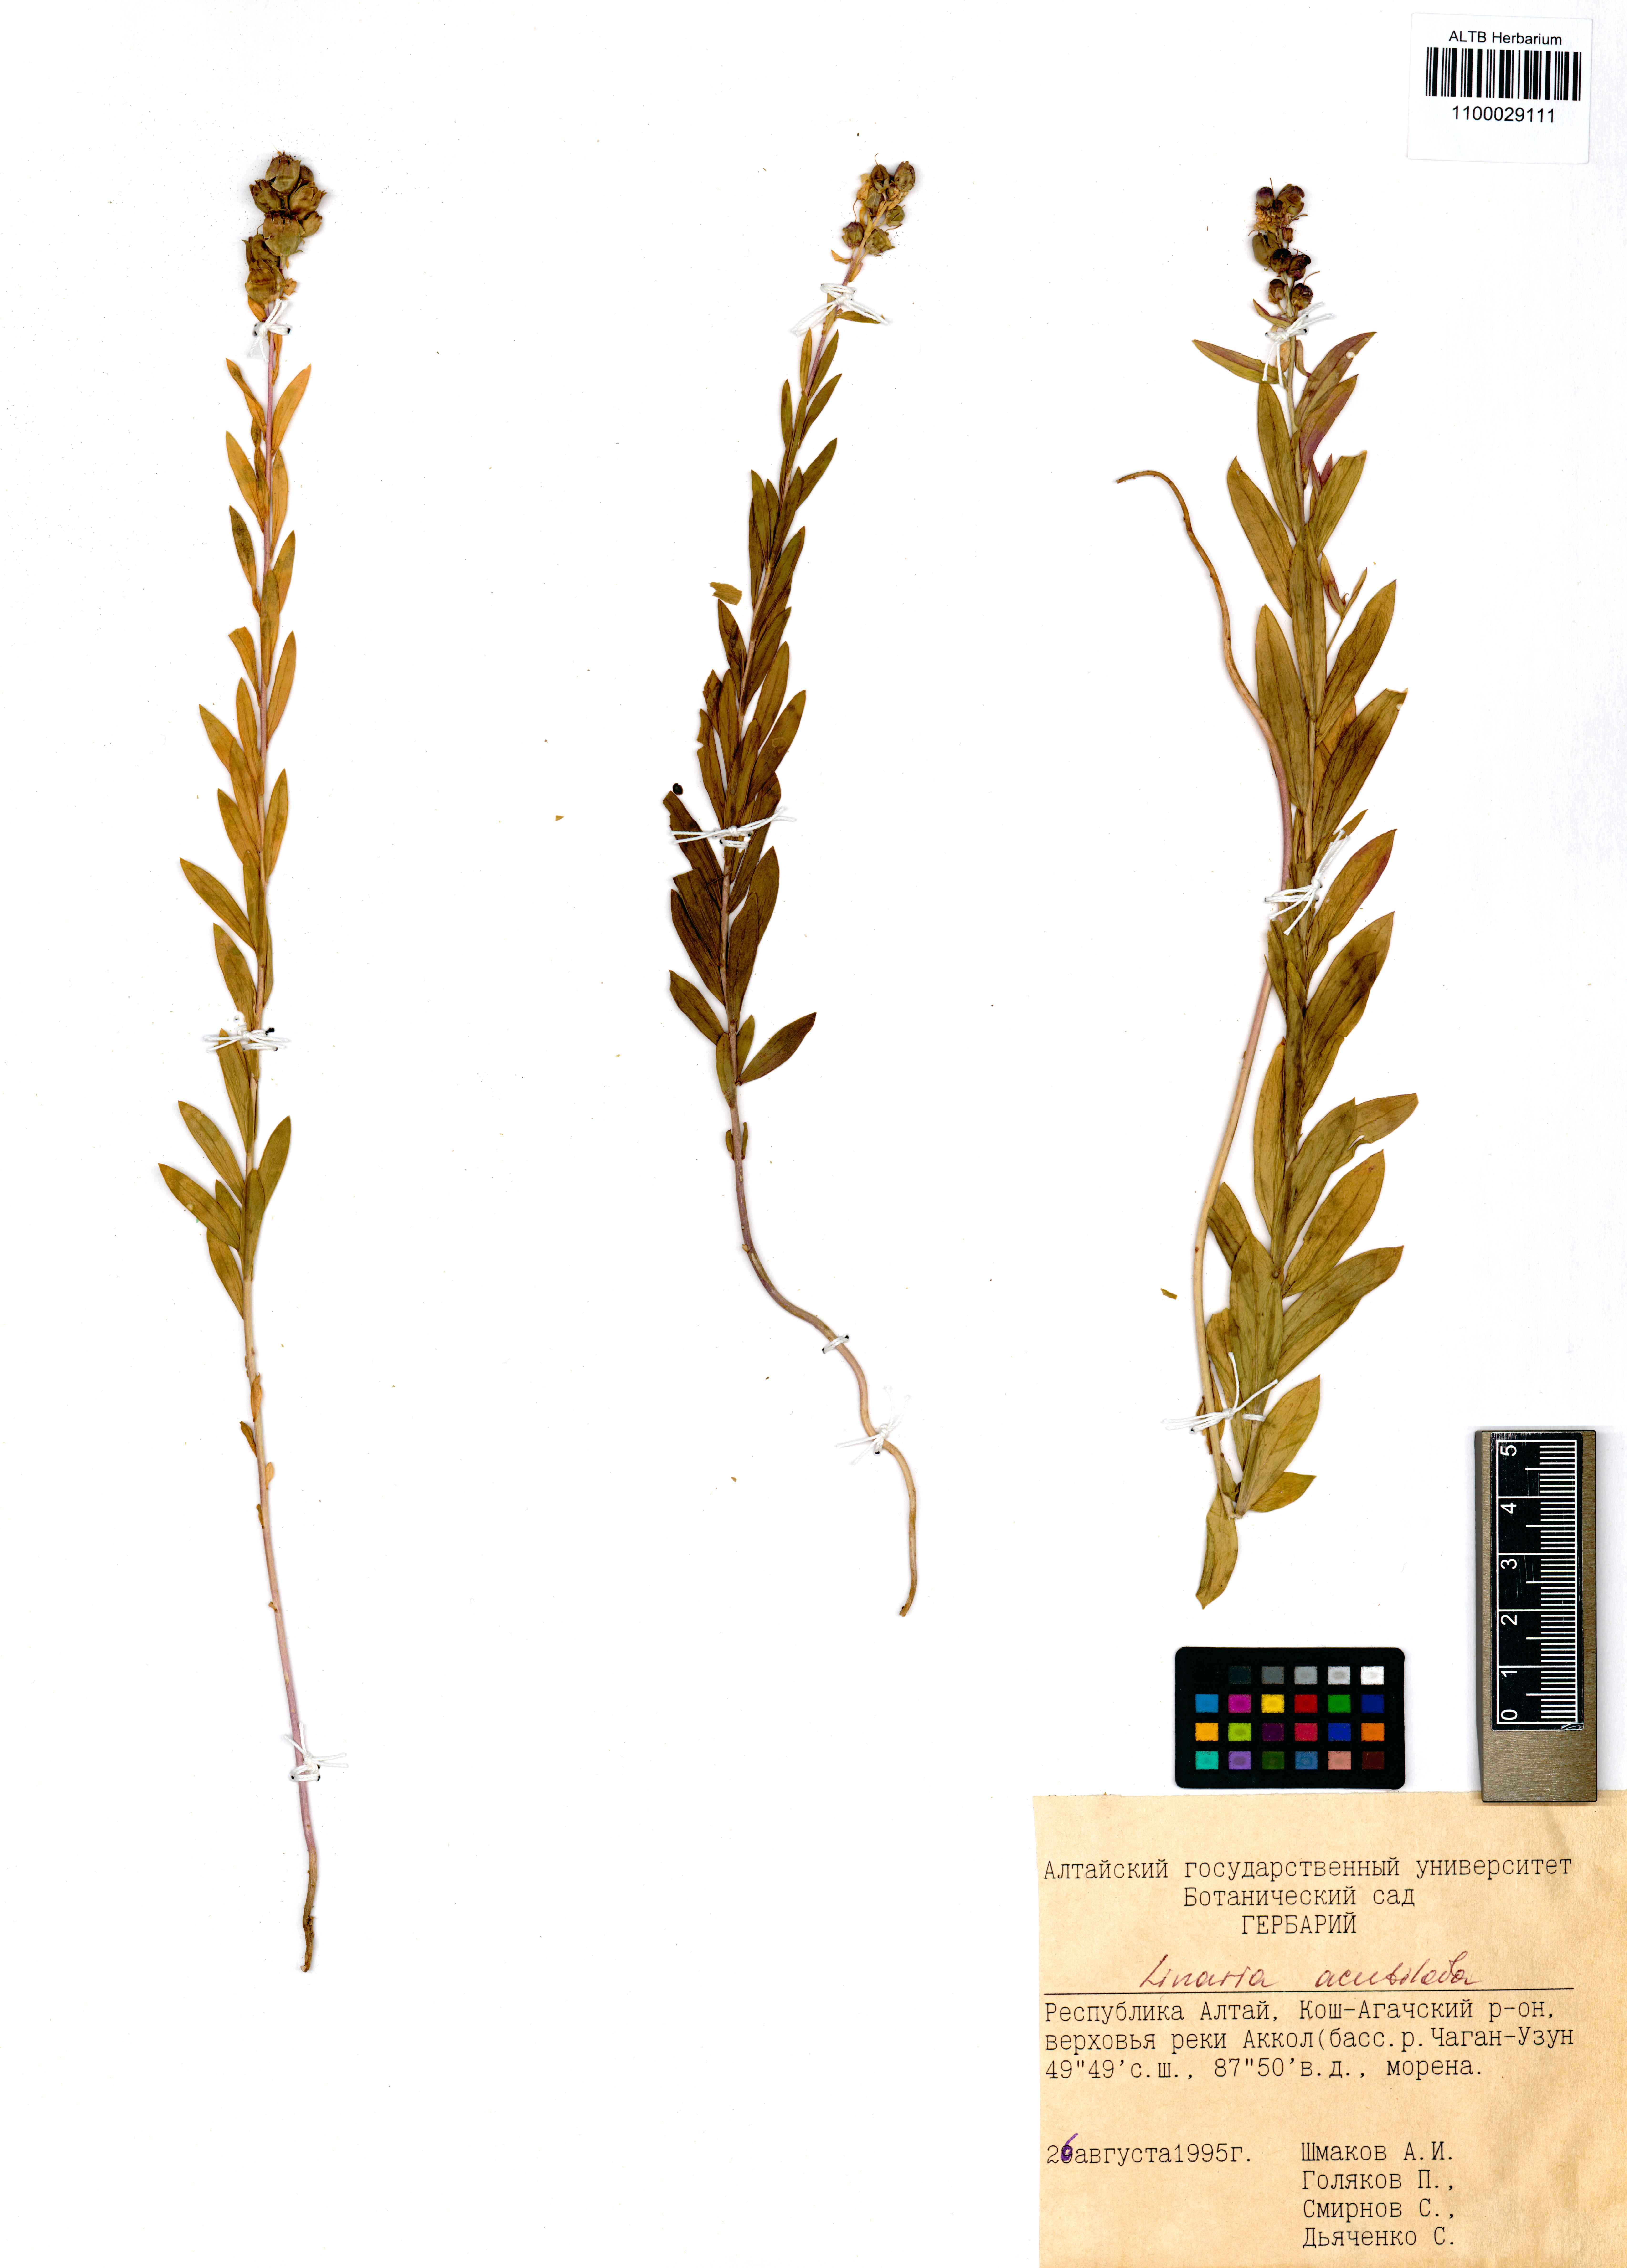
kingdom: Plantae
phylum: Tracheophyta
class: Magnoliopsida
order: Lamiales
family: Plantaginaceae
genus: Linaria
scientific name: Linaria acutiloba
